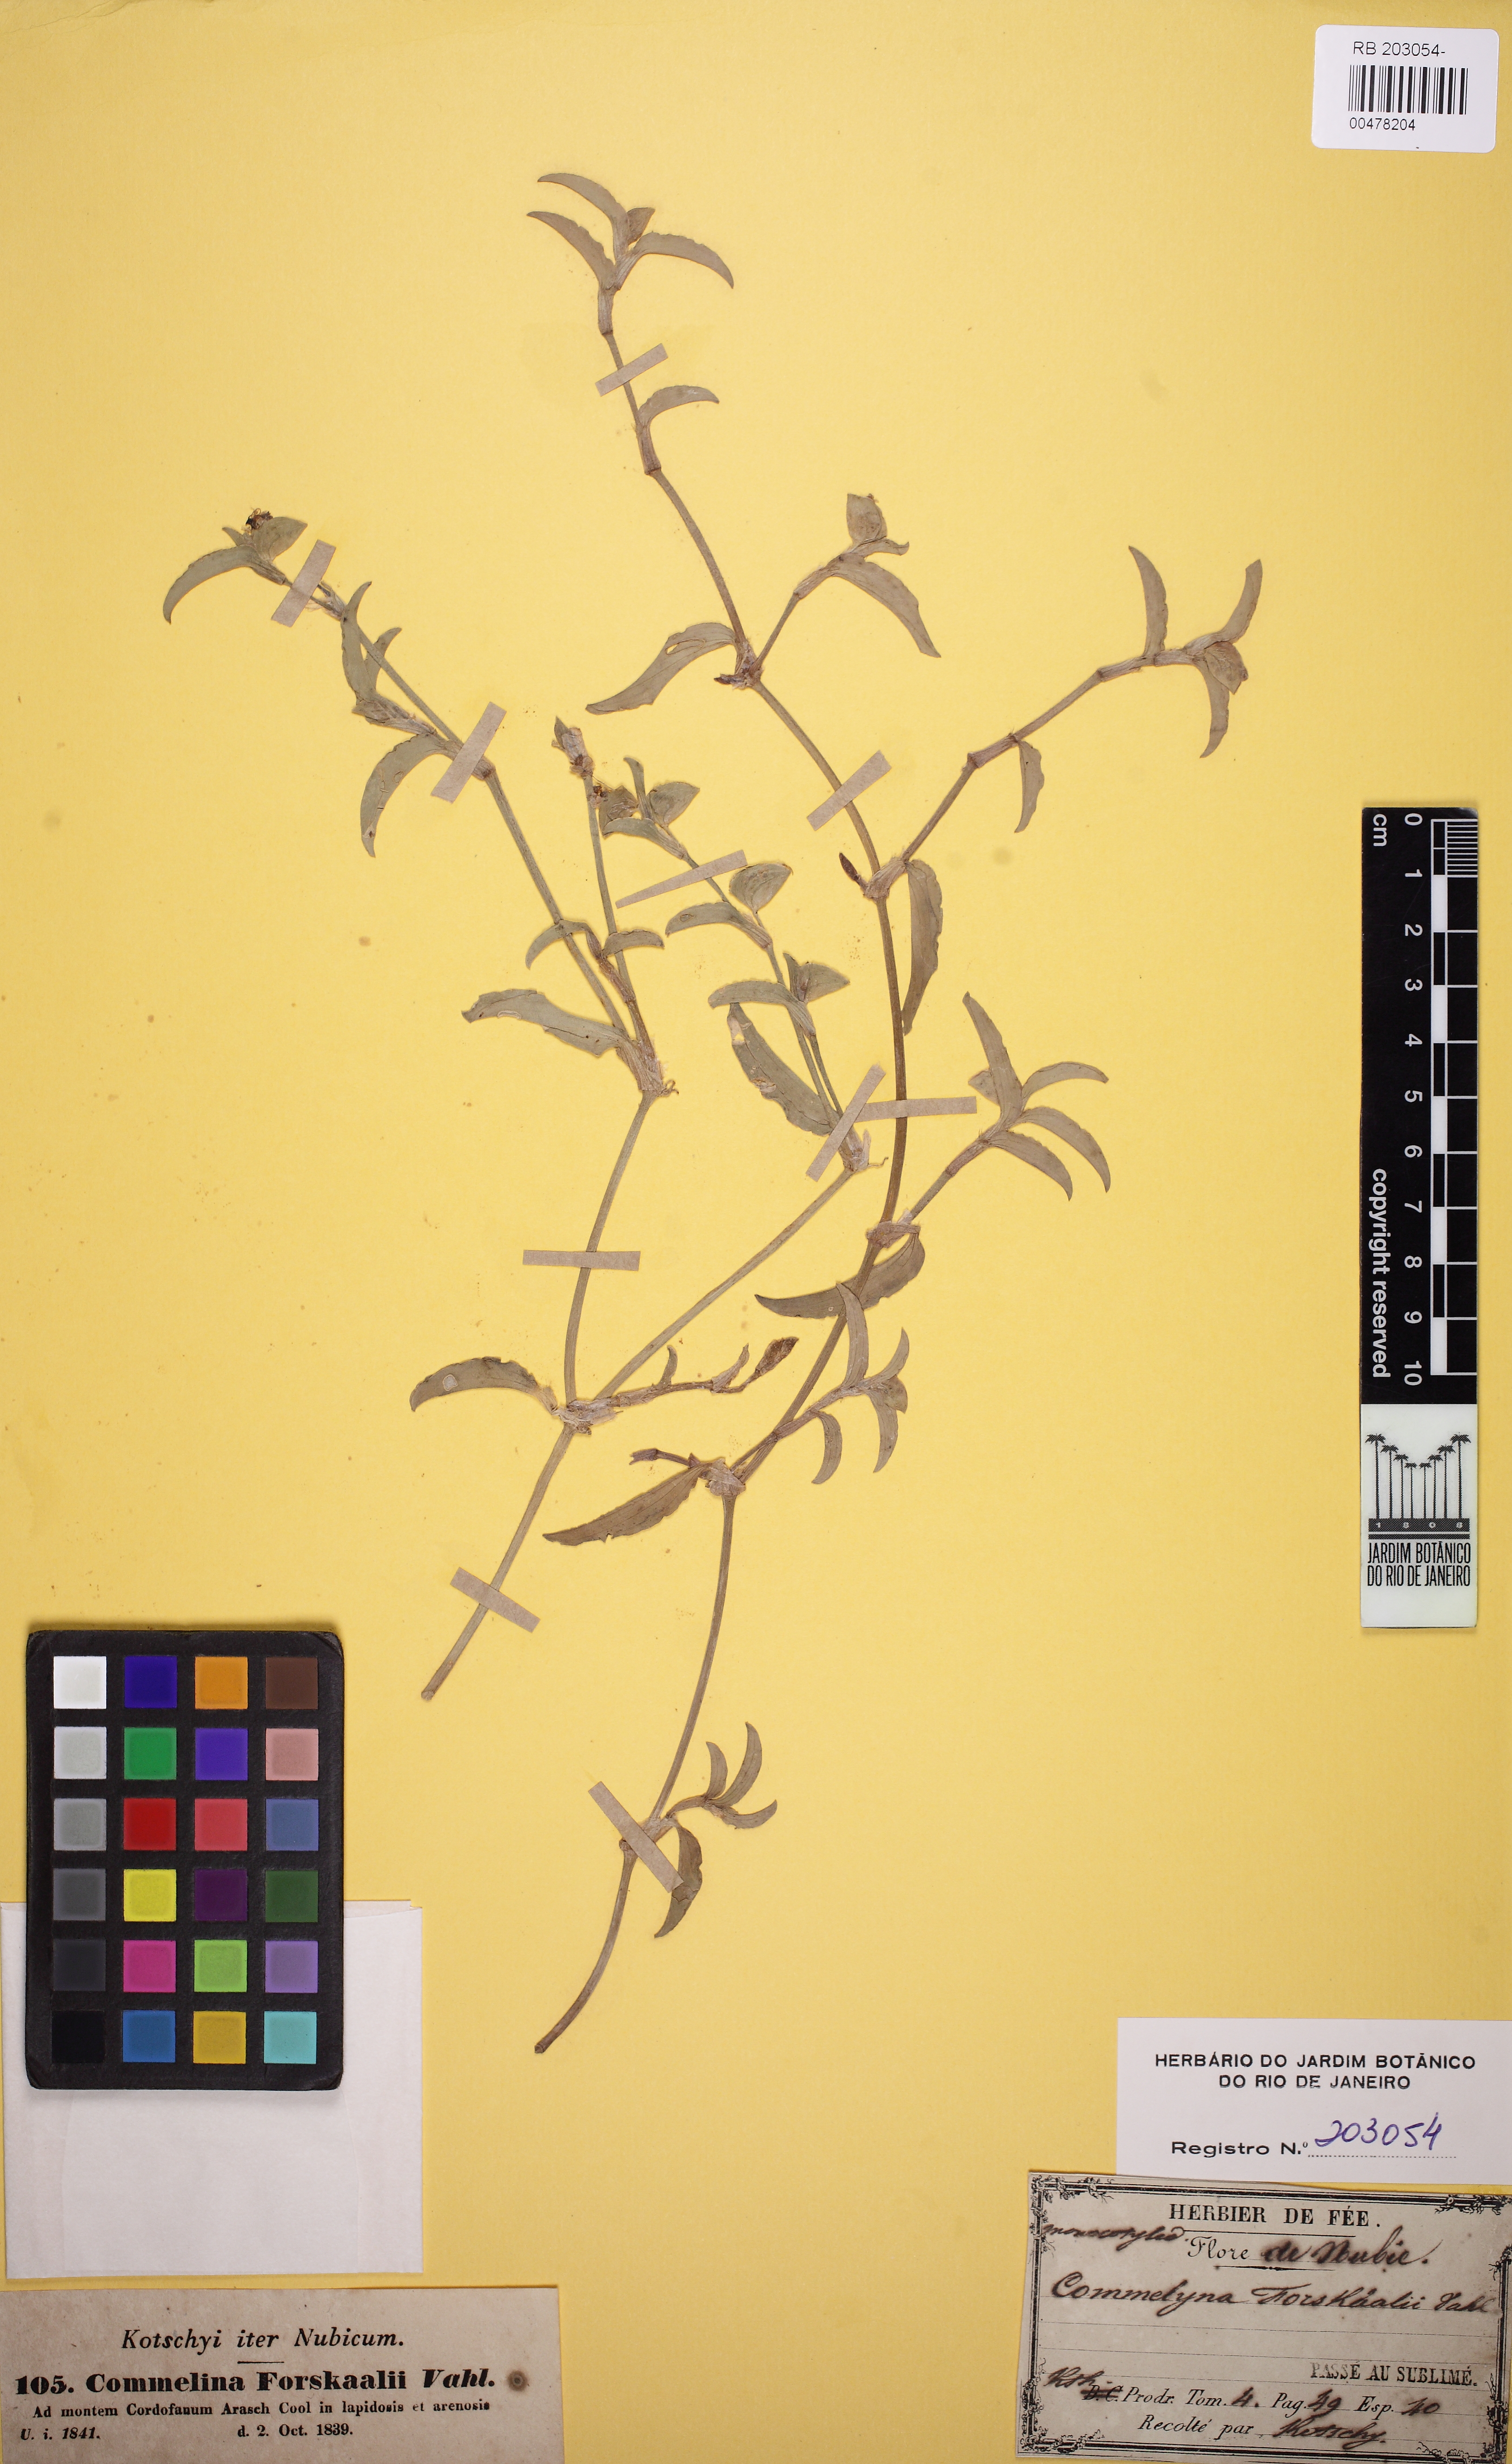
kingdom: Plantae
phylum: Tracheophyta
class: Liliopsida
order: Commelinales
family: Commelinaceae
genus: Commelina
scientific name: Commelina imberbis
